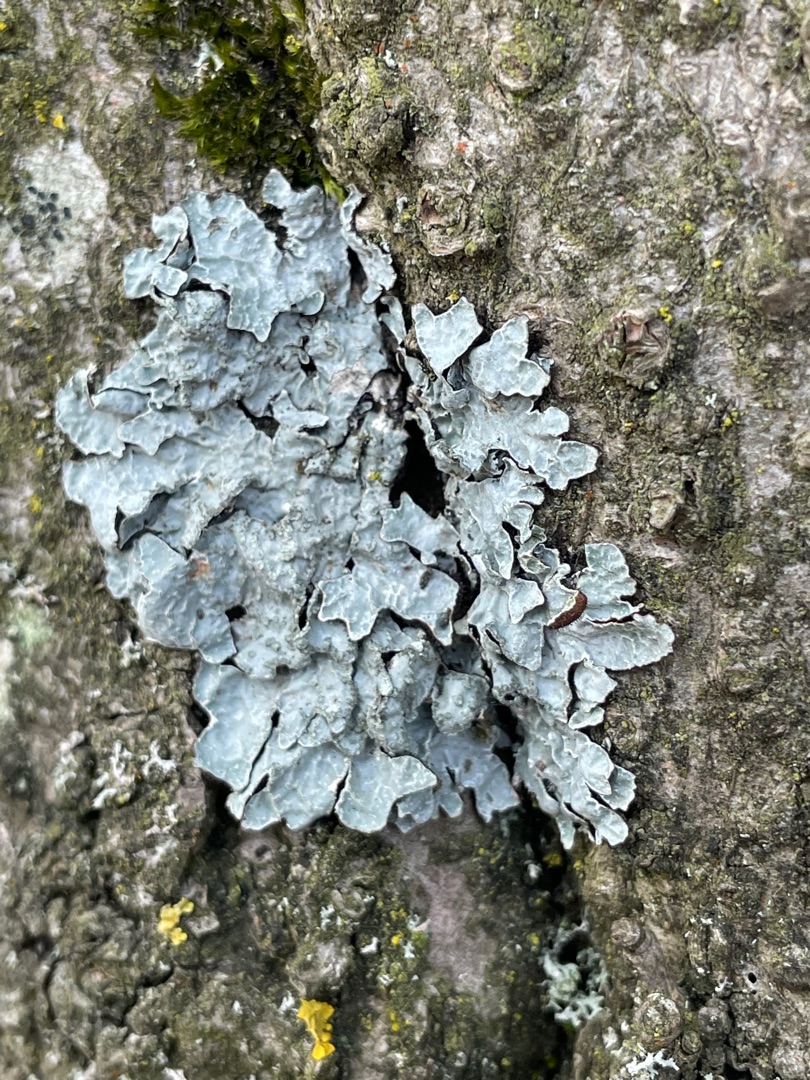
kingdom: Fungi
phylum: Ascomycota
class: Lecanoromycetes
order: Lecanorales
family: Parmeliaceae
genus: Parmelia
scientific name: Parmelia sulcata
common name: Rynket skållav
